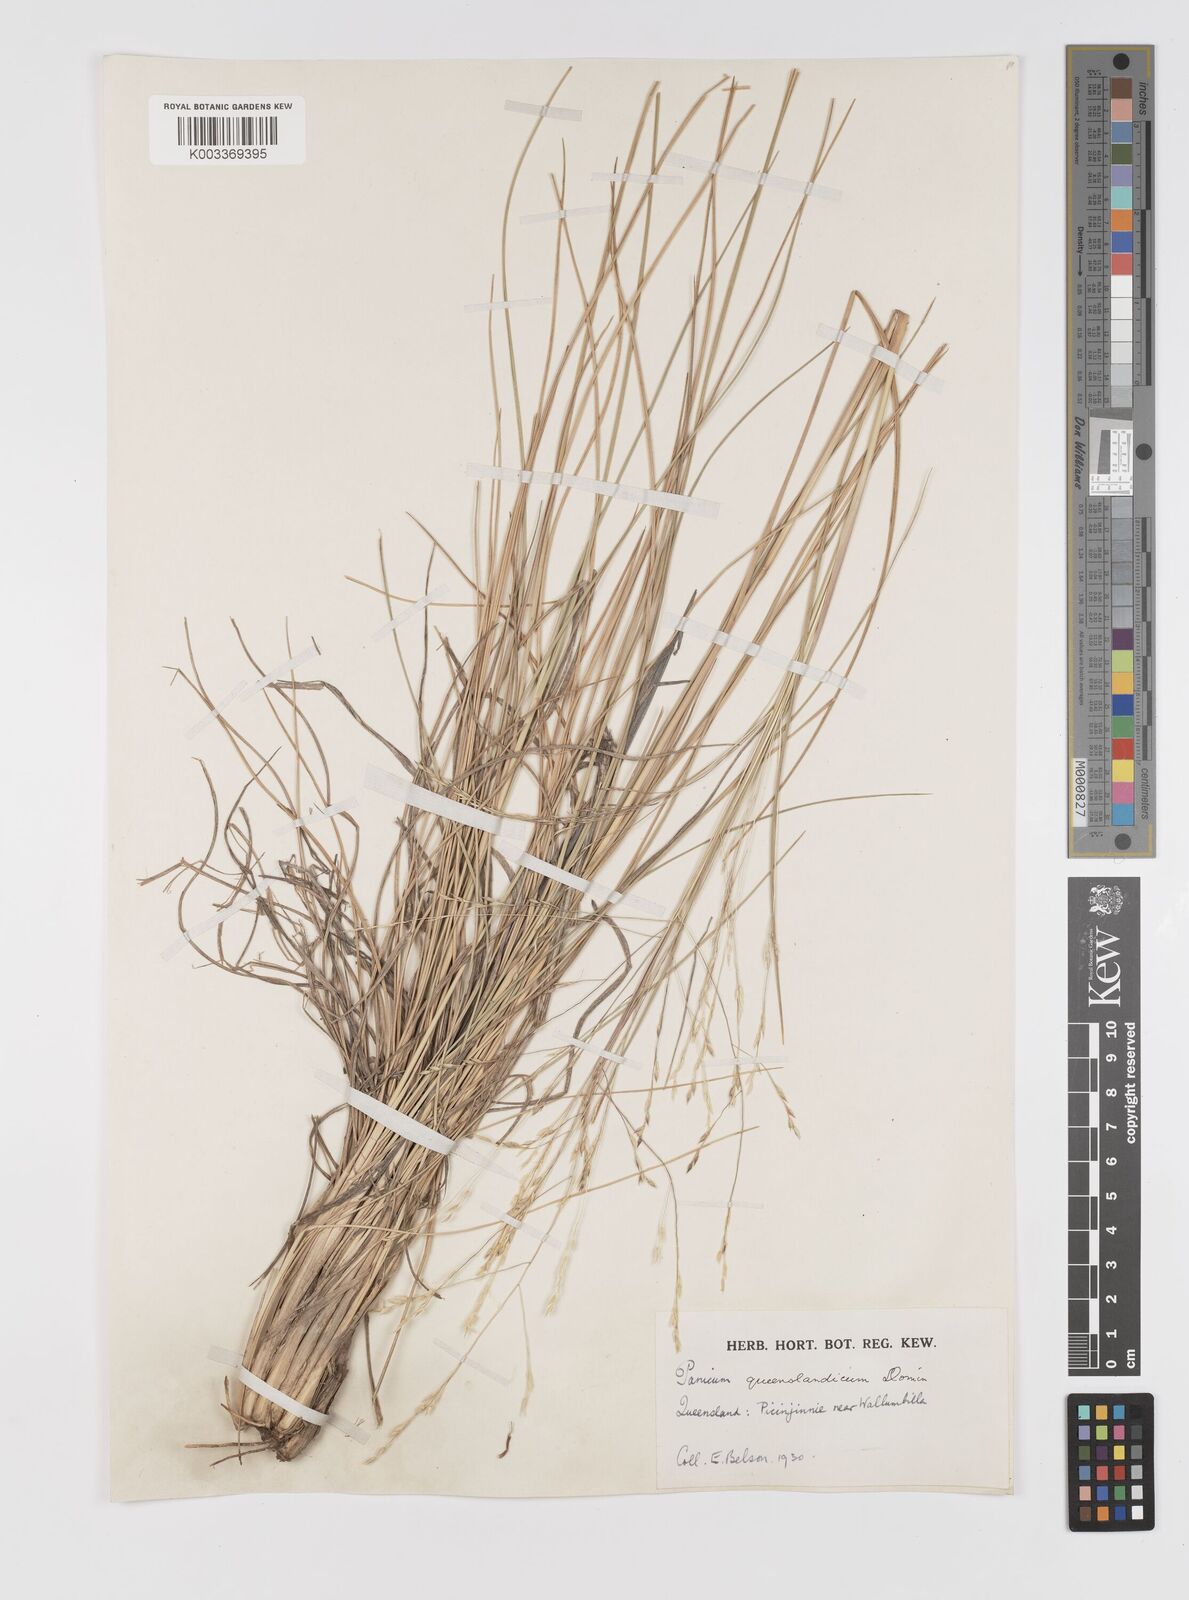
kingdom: Plantae
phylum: Tracheophyta
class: Liliopsida
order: Poales
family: Poaceae
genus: Panicum
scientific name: Panicum queenslandicum
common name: Yabila grass
